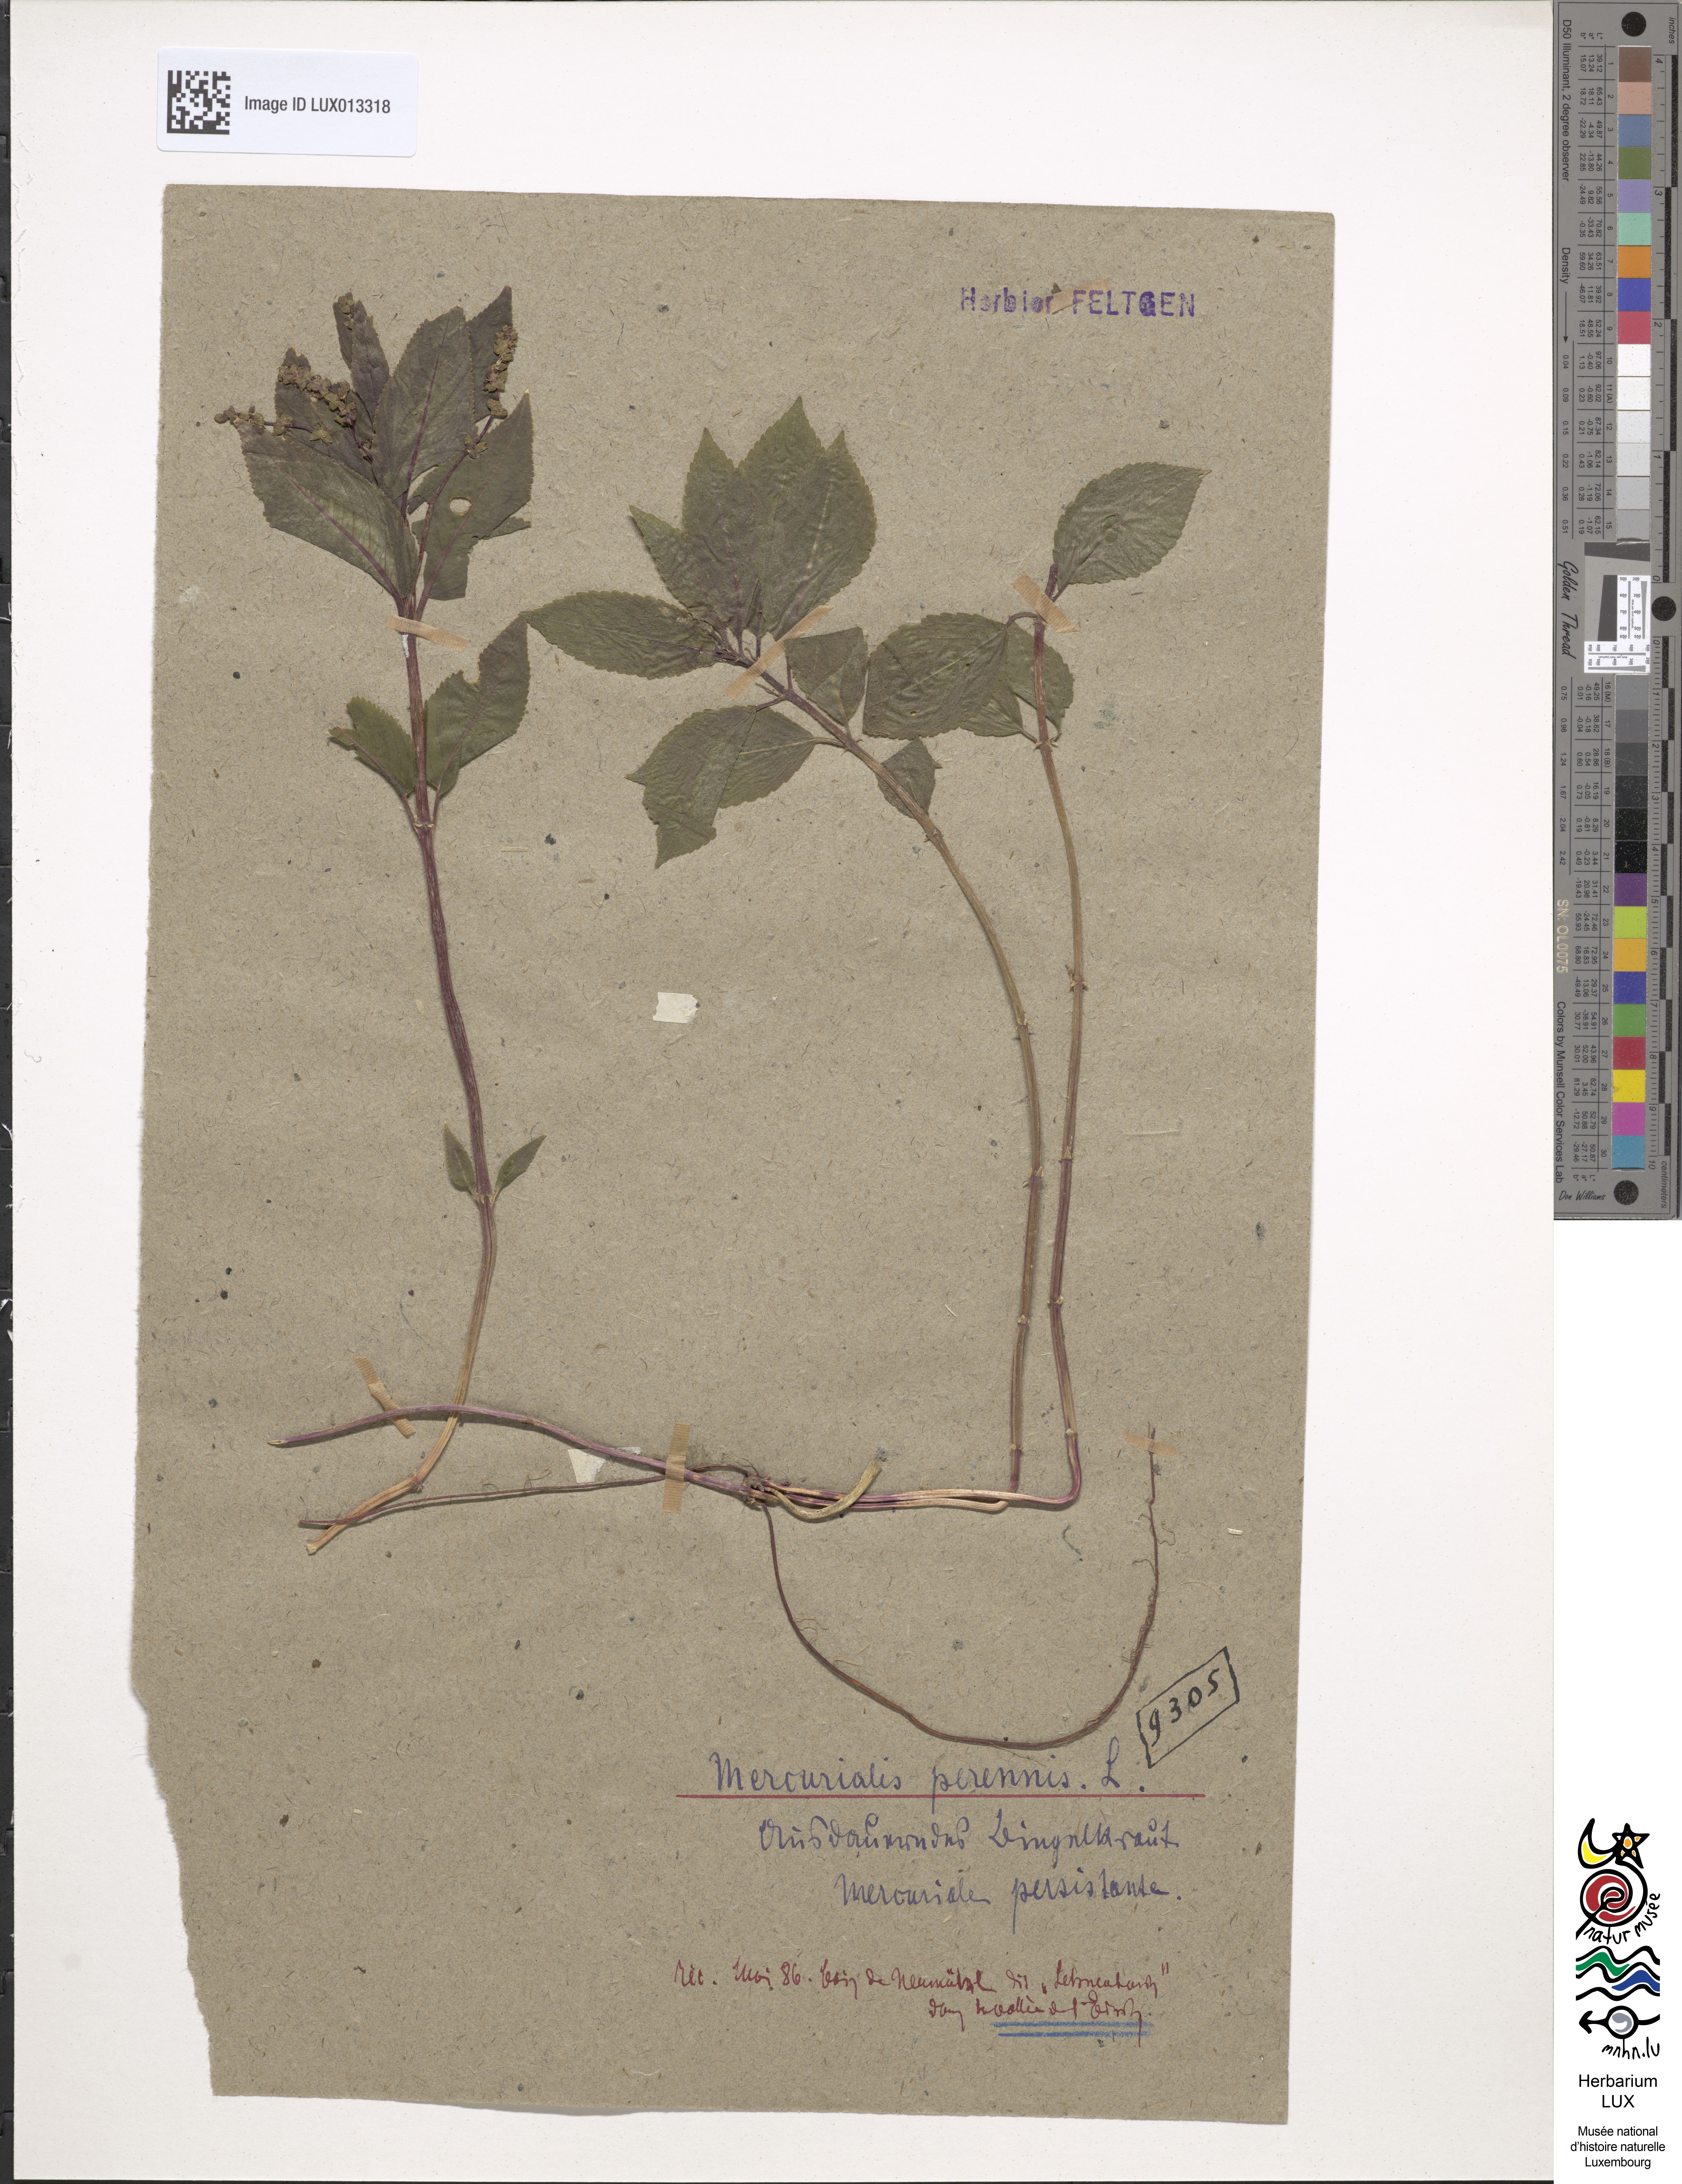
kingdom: Plantae
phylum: Tracheophyta
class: Magnoliopsida
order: Malpighiales
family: Euphorbiaceae
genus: Mercurialis
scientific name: Mercurialis perennis
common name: Dog mercury
